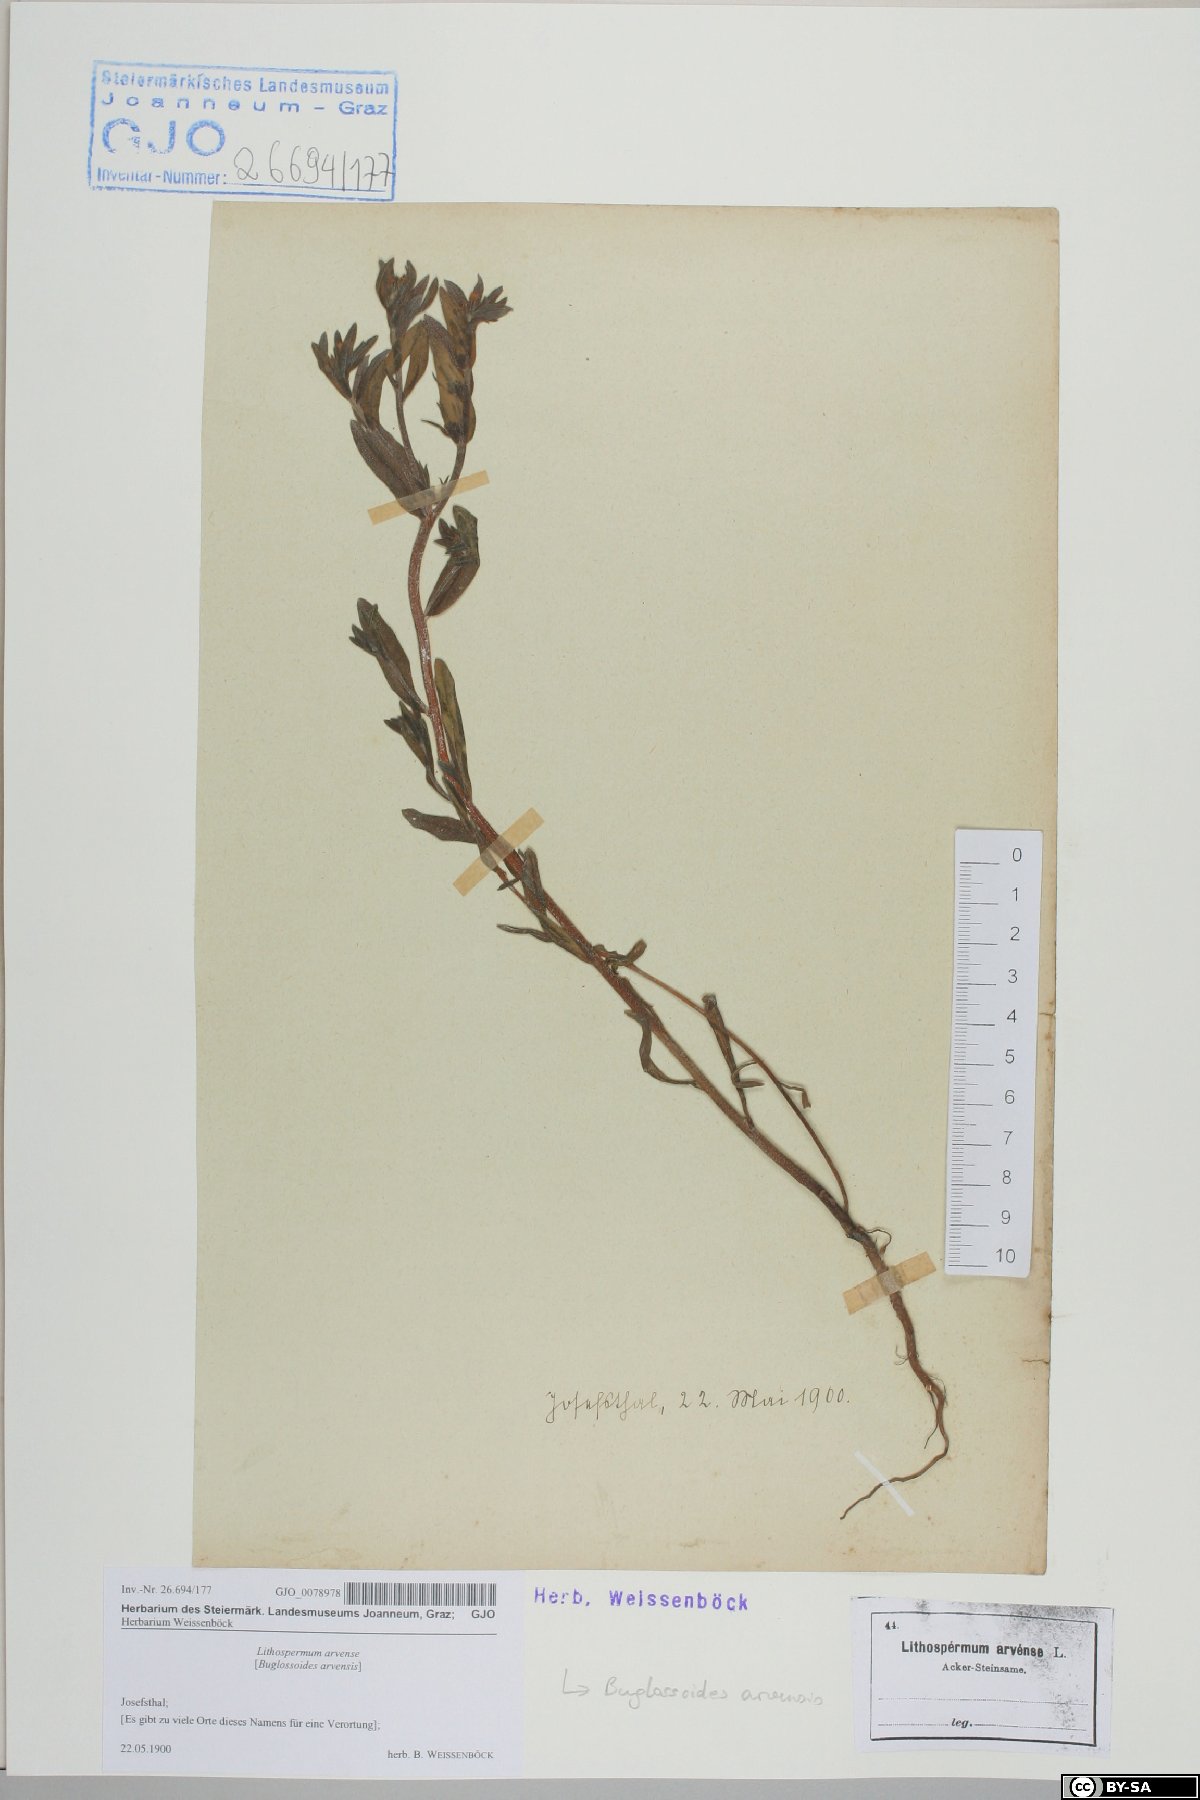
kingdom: Plantae
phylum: Tracheophyta
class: Magnoliopsida
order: Boraginales
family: Boraginaceae
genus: Buglossoides
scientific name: Buglossoides arvensis
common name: Corn gromwell
